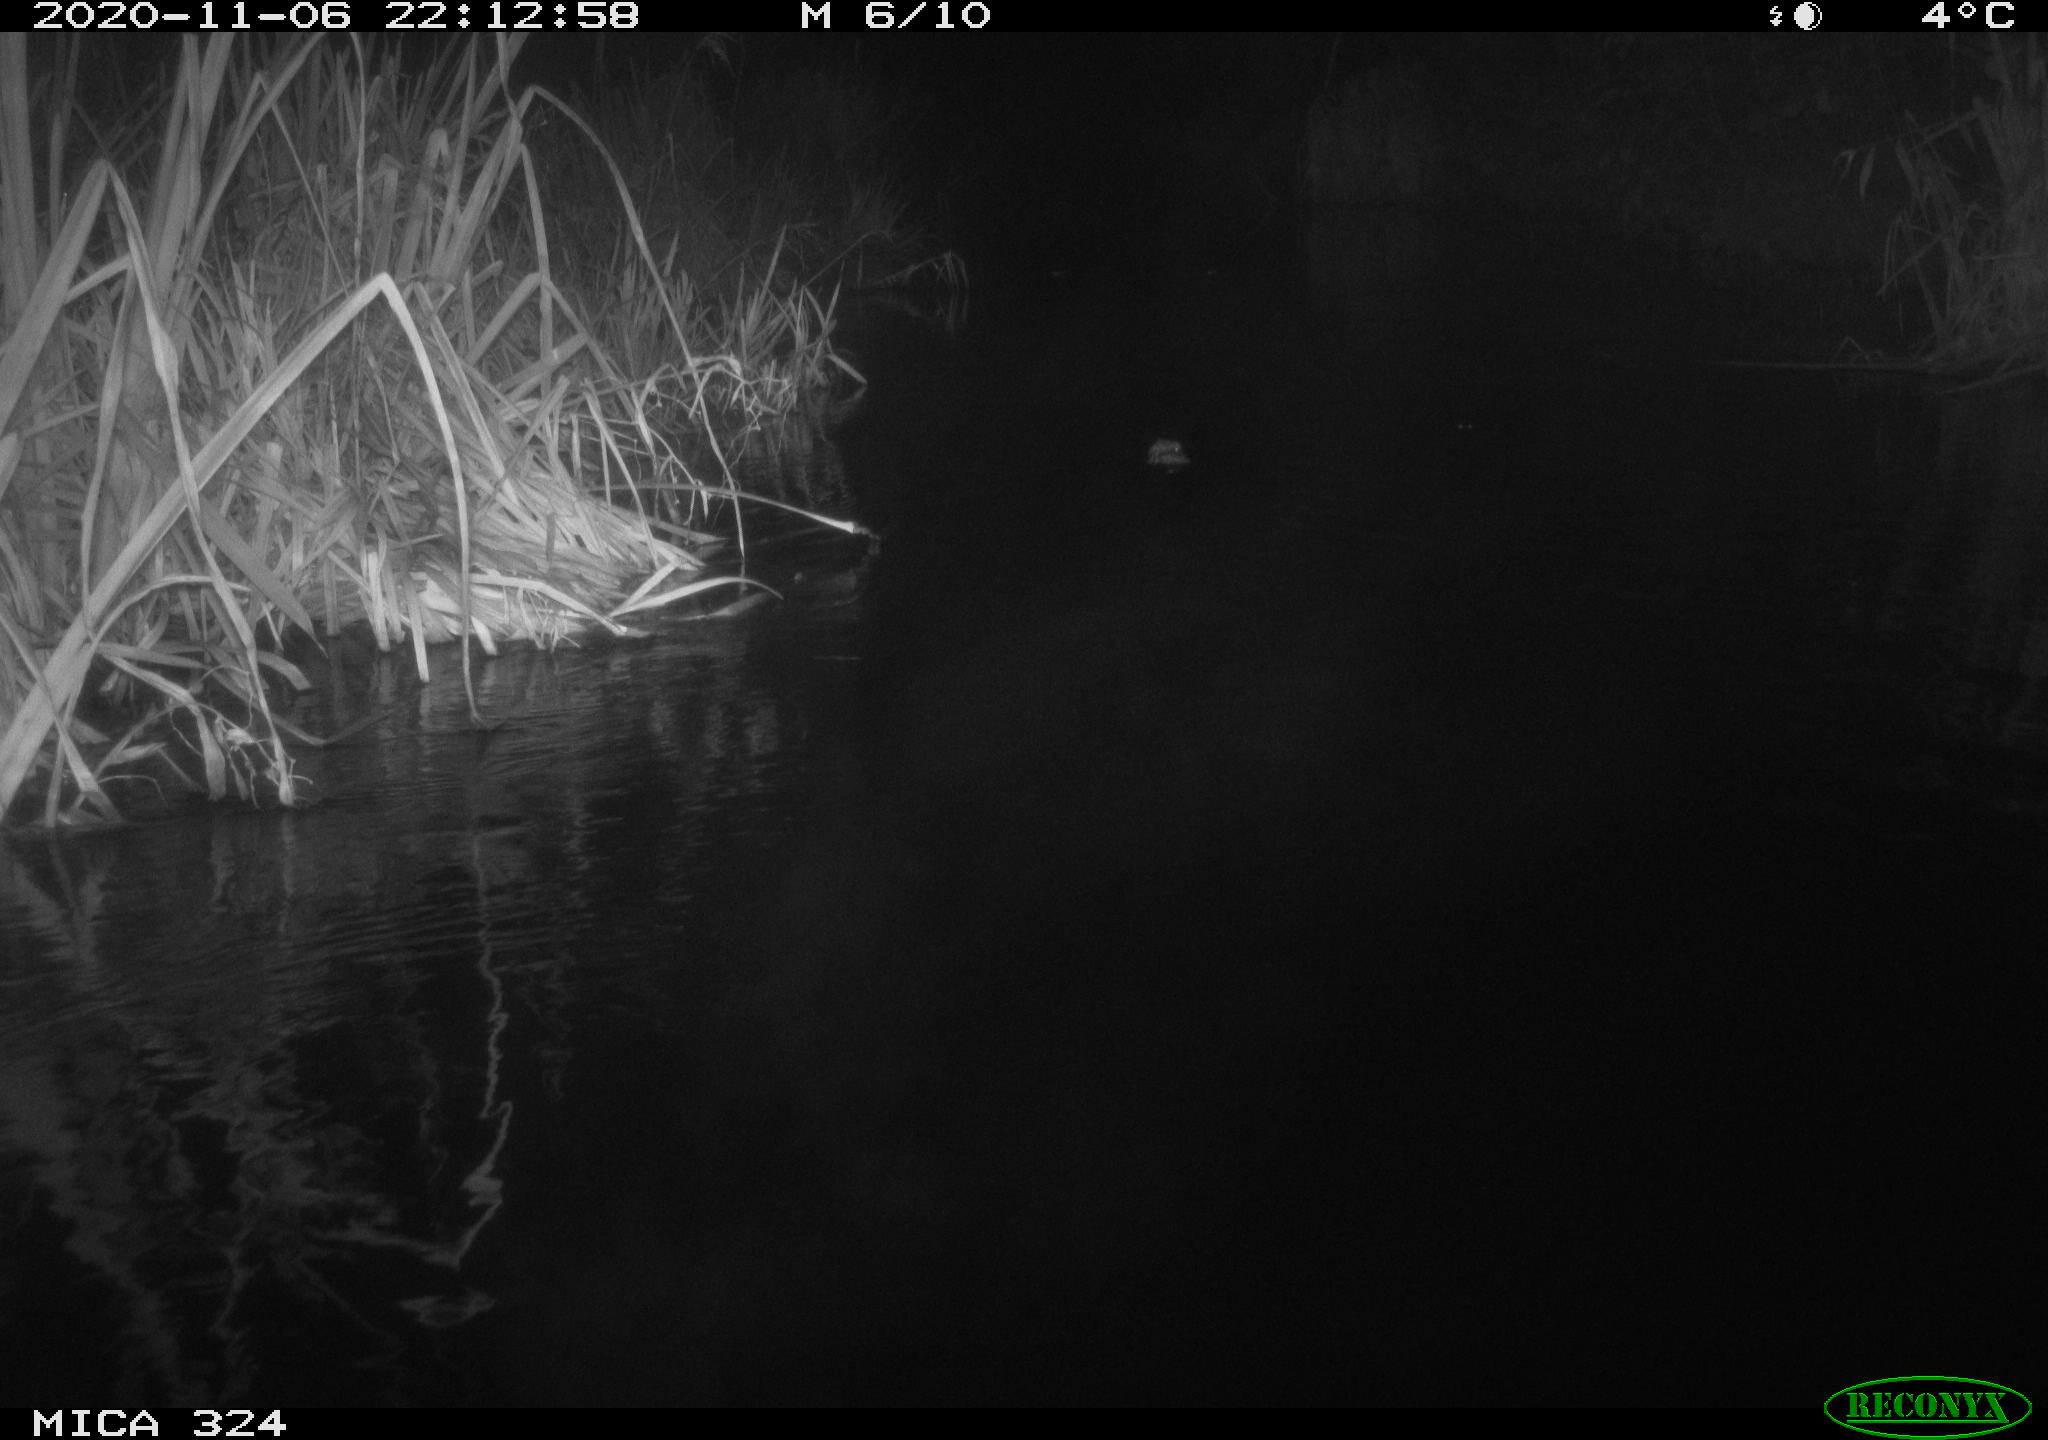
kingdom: Animalia
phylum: Chordata
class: Mammalia
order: Rodentia
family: Cricetidae
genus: Ondatra
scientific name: Ondatra zibethicus
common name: Muskrat
